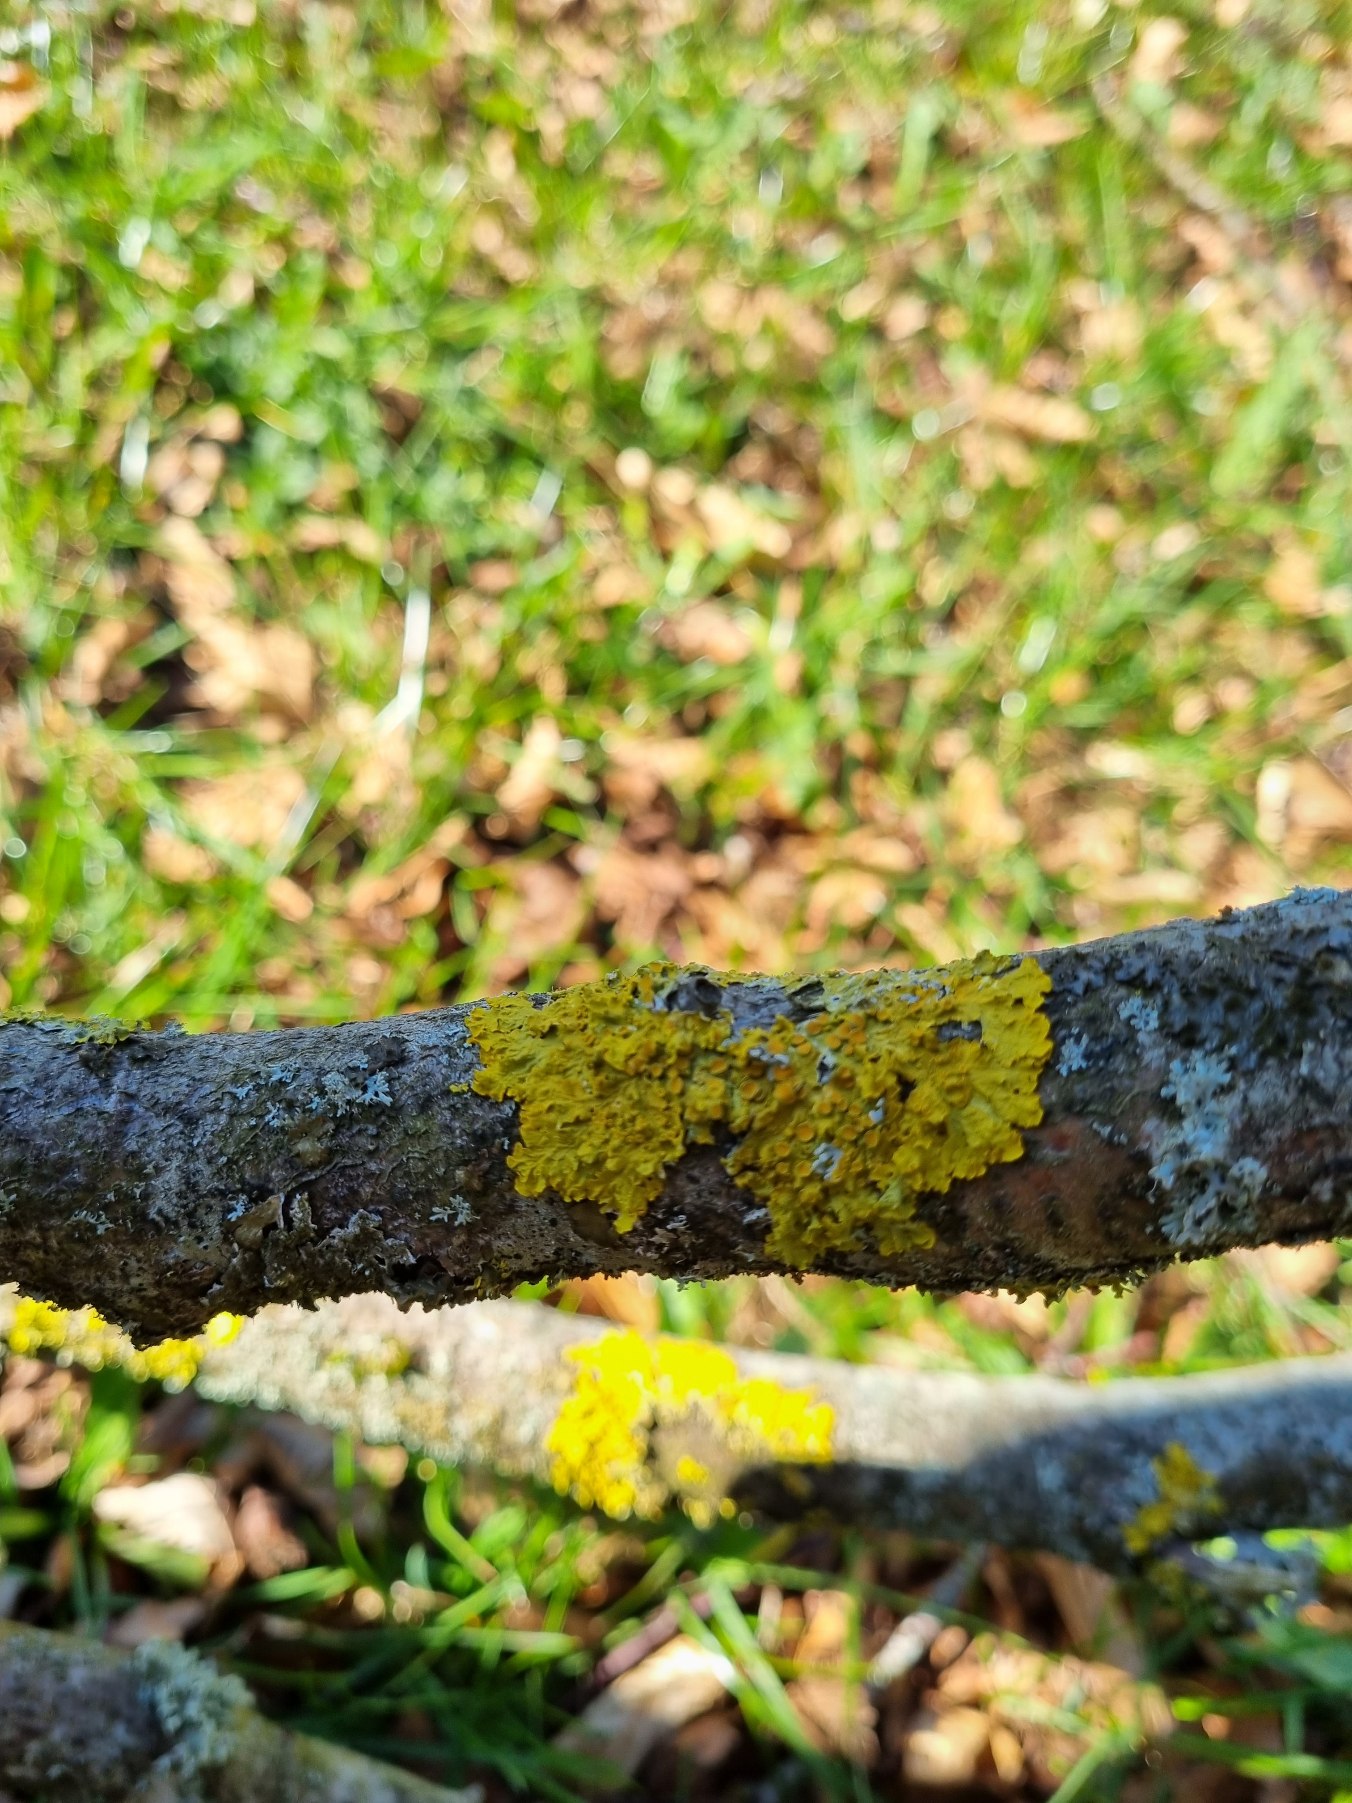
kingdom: Fungi
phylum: Ascomycota
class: Lecanoromycetes
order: Teloschistales
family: Teloschistaceae
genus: Xanthoria
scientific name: Xanthoria parietina
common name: Almindelig væggelav
